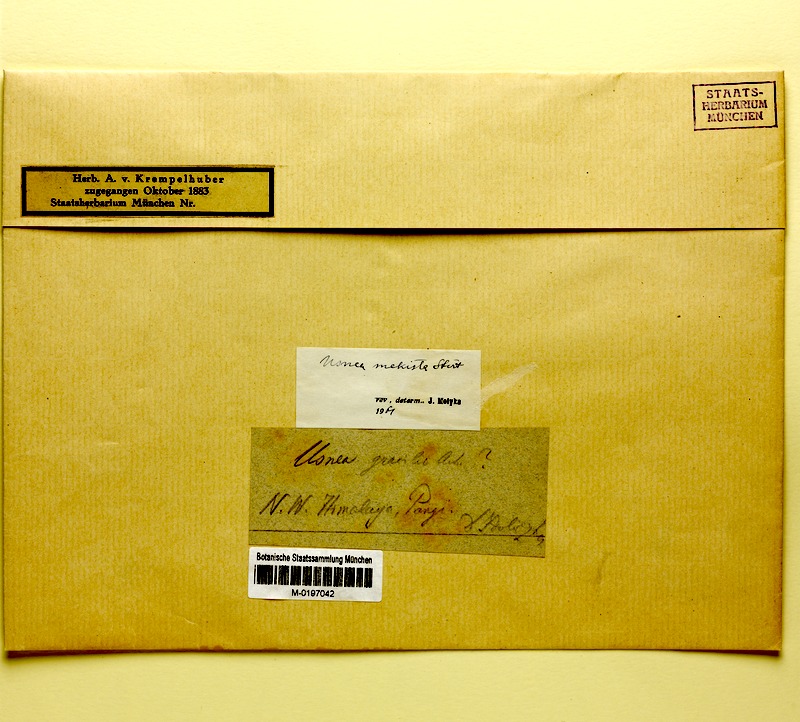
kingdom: Fungi
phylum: Ascomycota
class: Lecanoromycetes
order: Lecanorales
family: Parmeliaceae
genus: Usnea
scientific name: Usnea mekista
